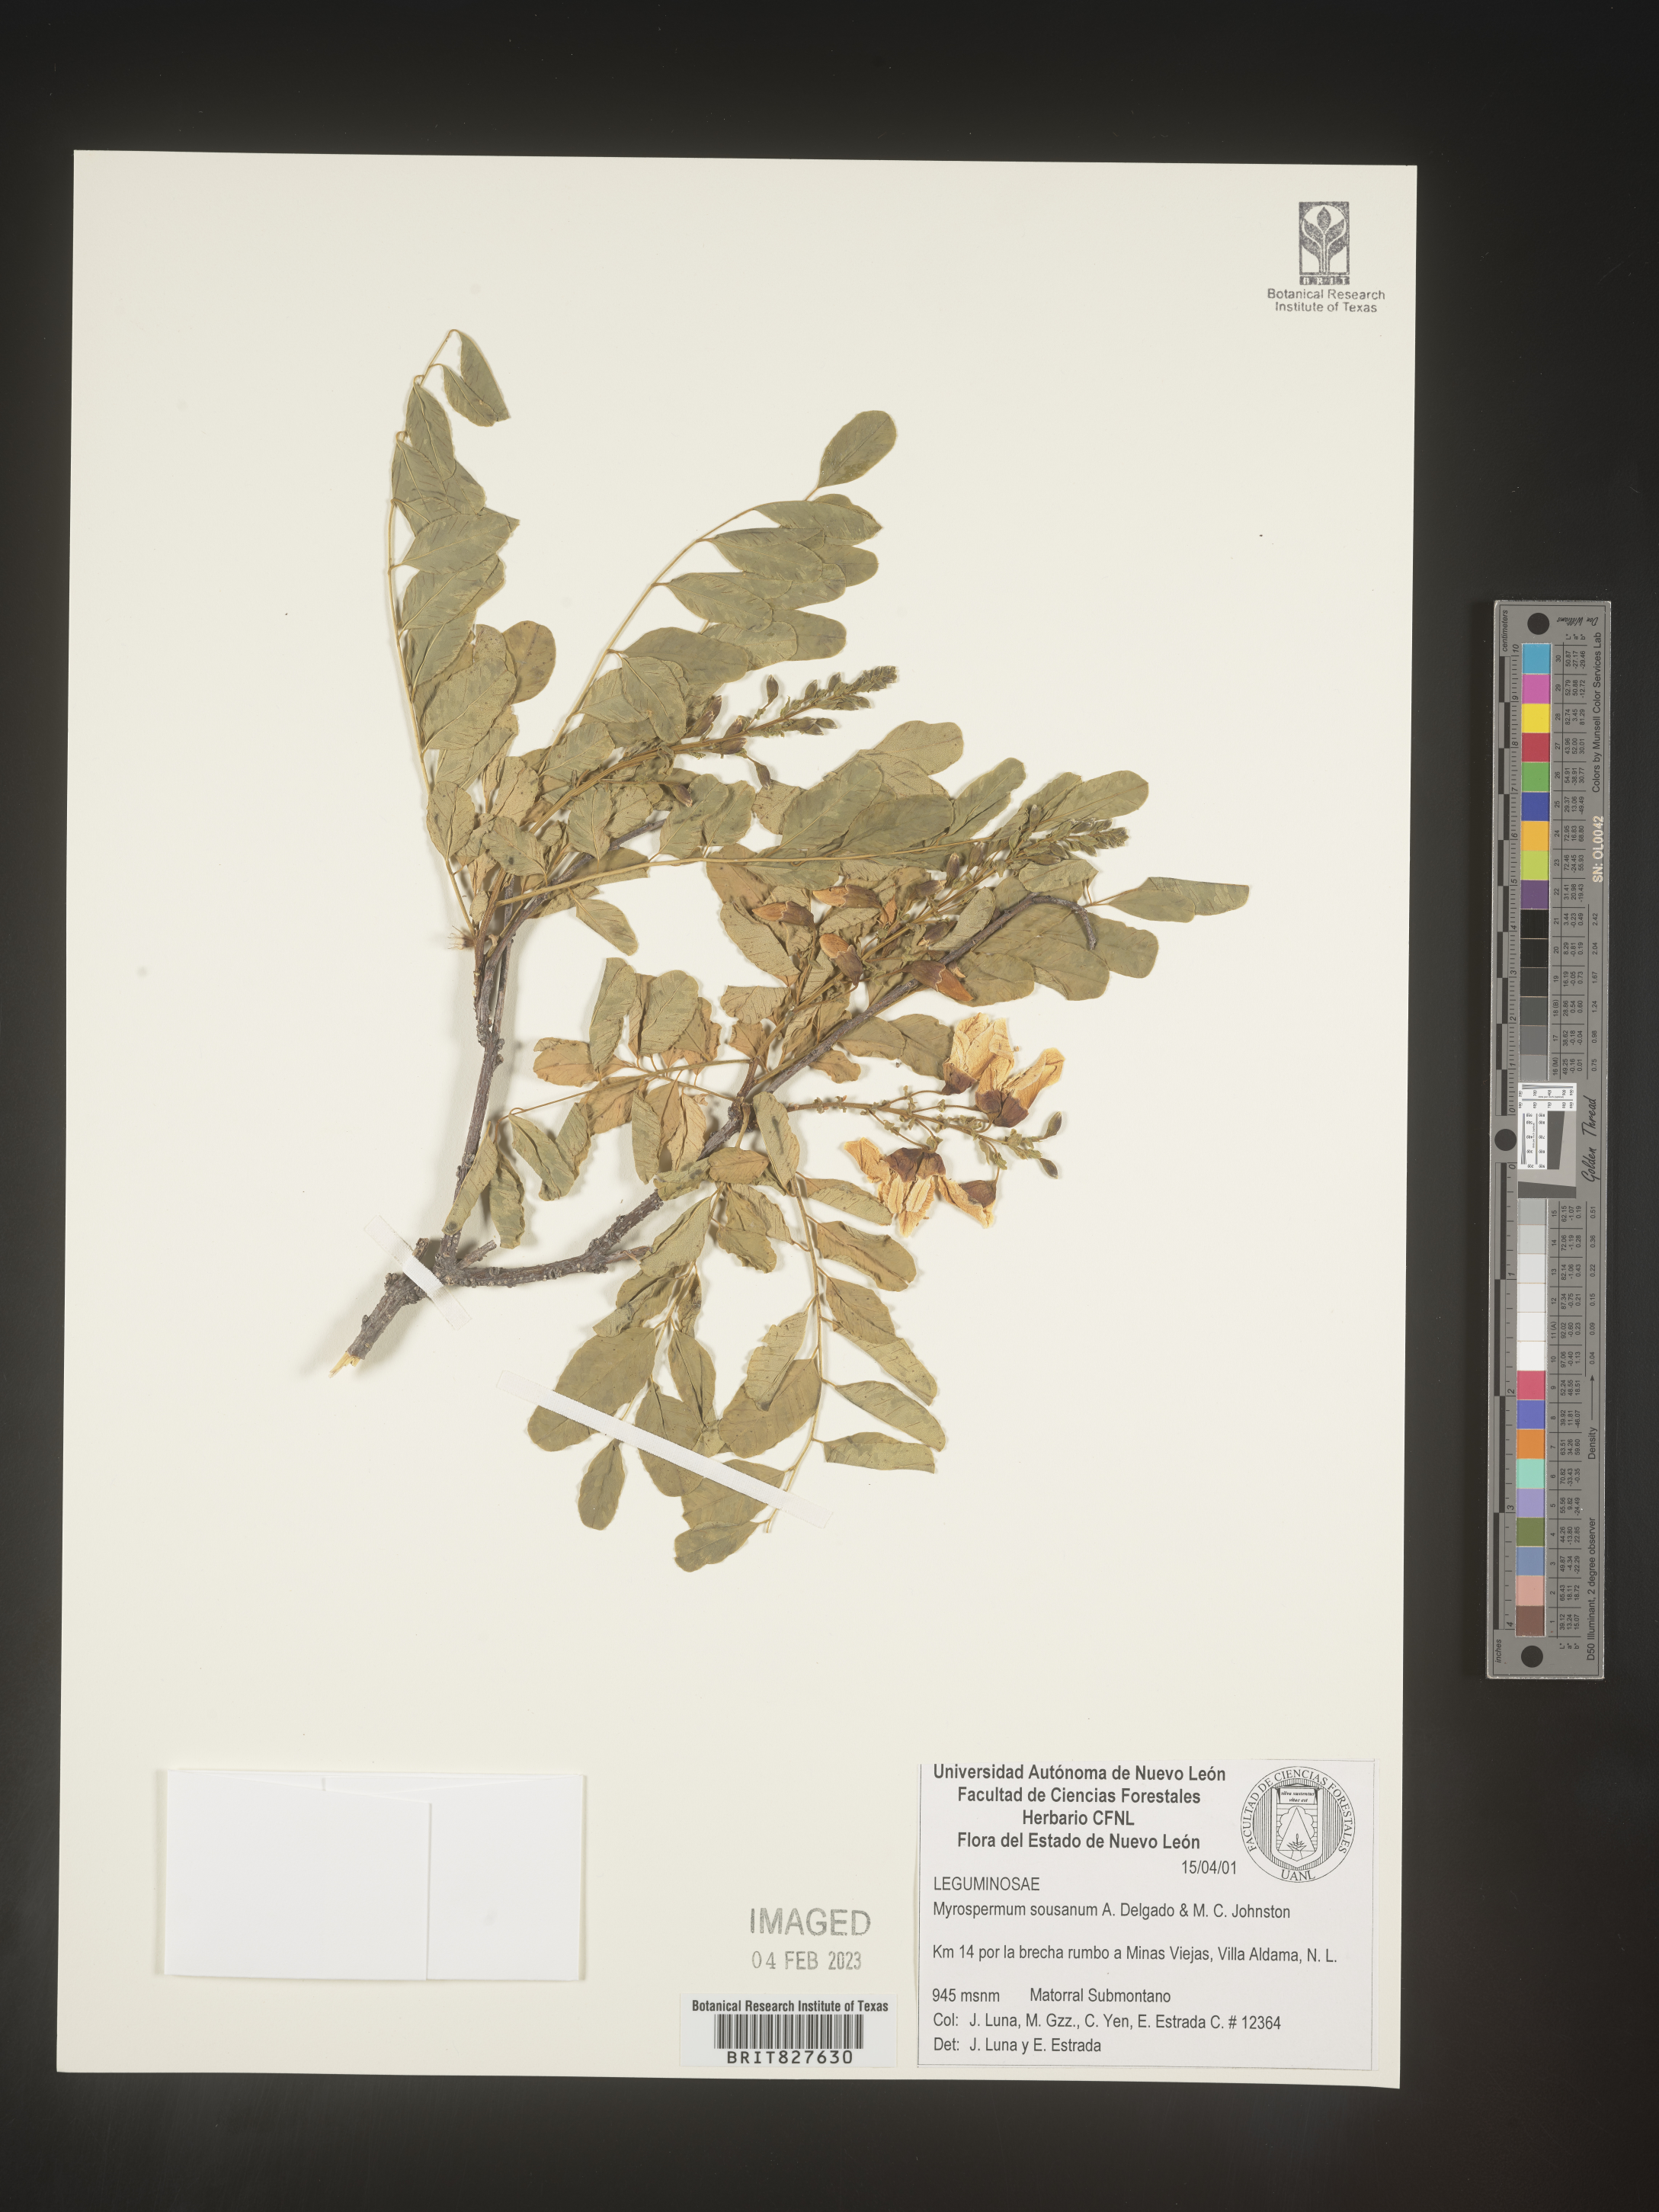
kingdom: Plantae
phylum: Tracheophyta
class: Magnoliopsida
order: Fabales
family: Fabaceae
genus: Myrospermum
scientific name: Myrospermum
